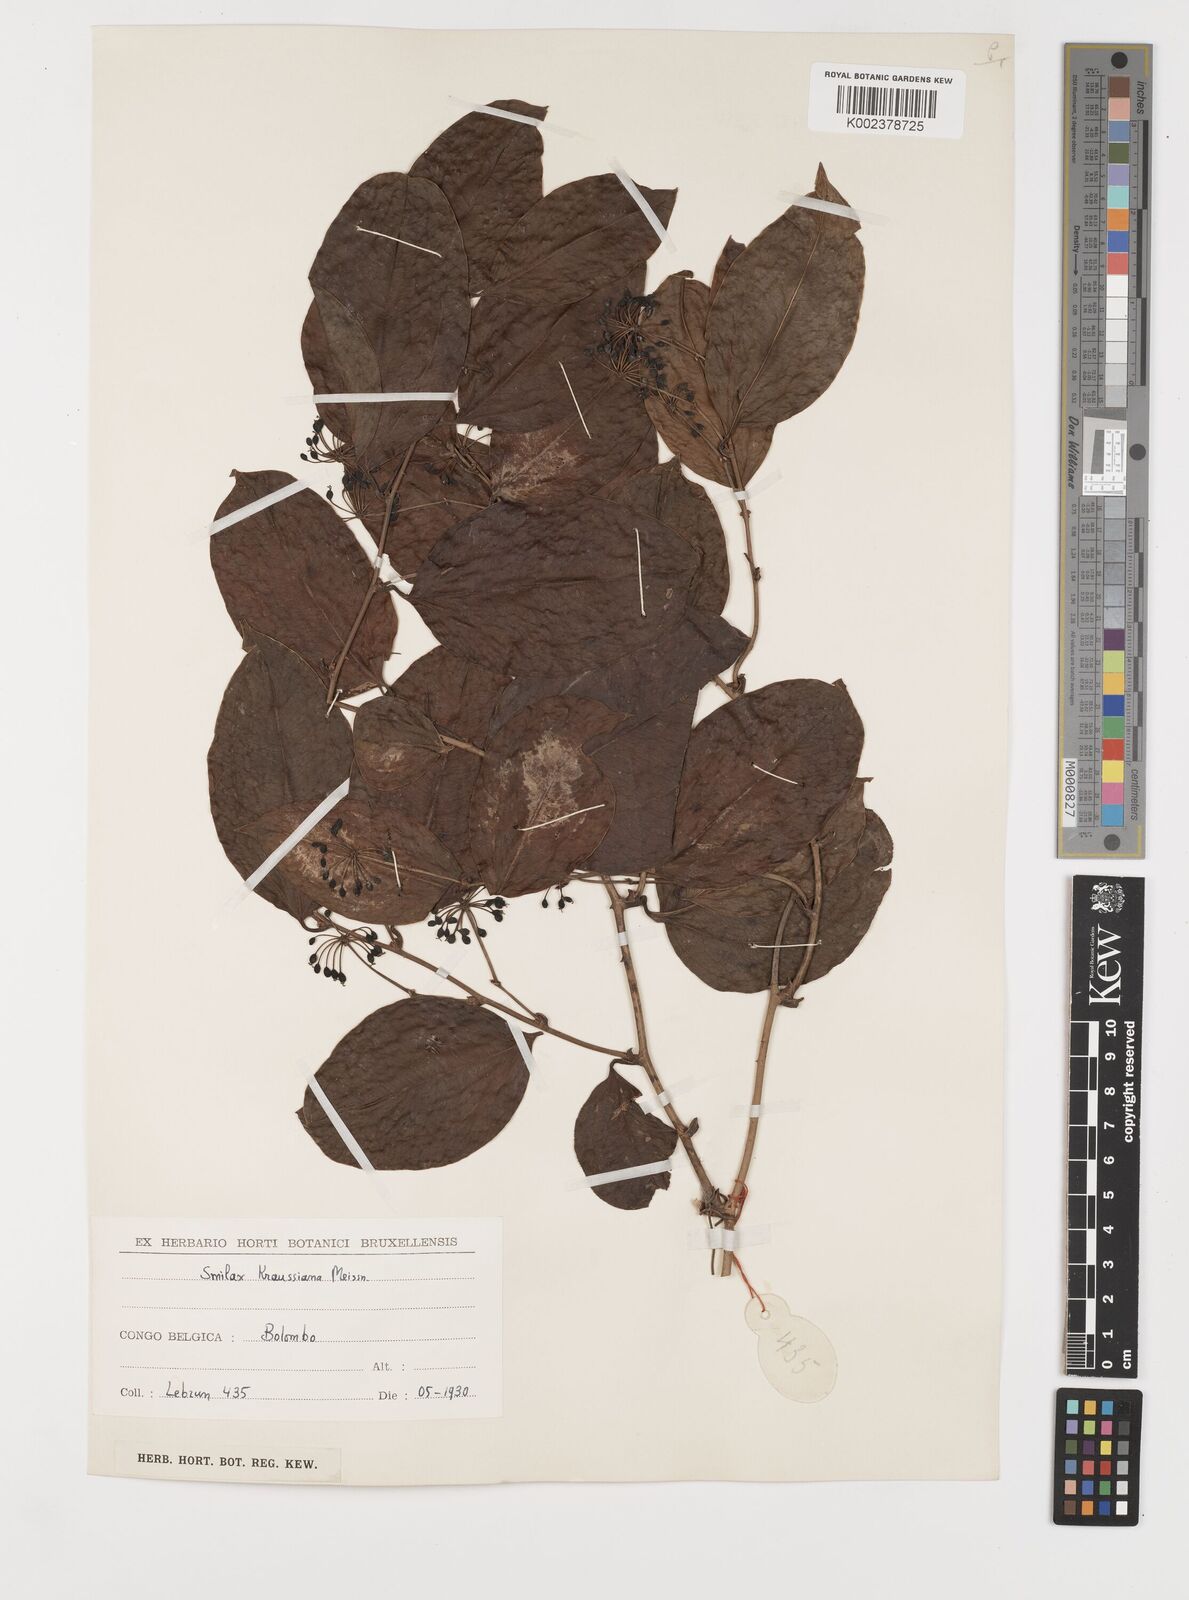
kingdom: Plantae
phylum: Tracheophyta
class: Liliopsida
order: Liliales
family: Smilacaceae
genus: Smilax
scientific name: Smilax anceps
